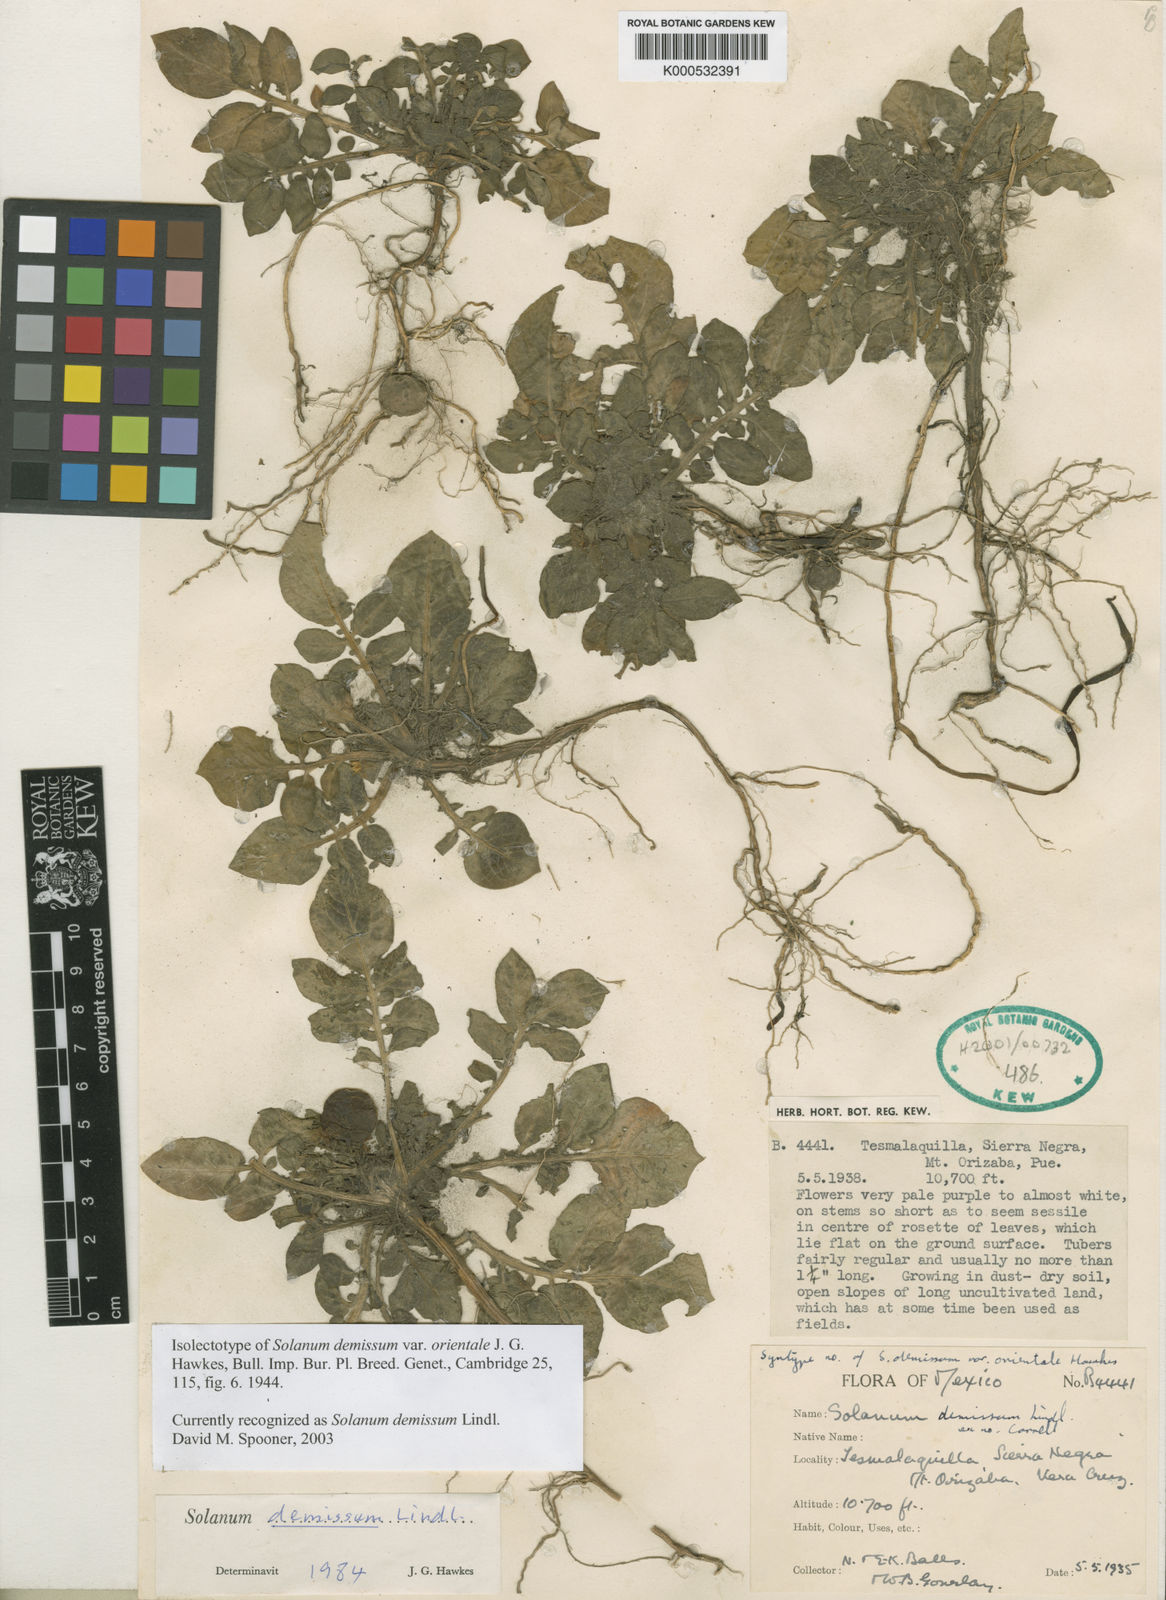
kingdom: Plantae
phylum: Tracheophyta
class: Magnoliopsida
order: Solanales
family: Solanaceae
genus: Solanum
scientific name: Solanum demissum
